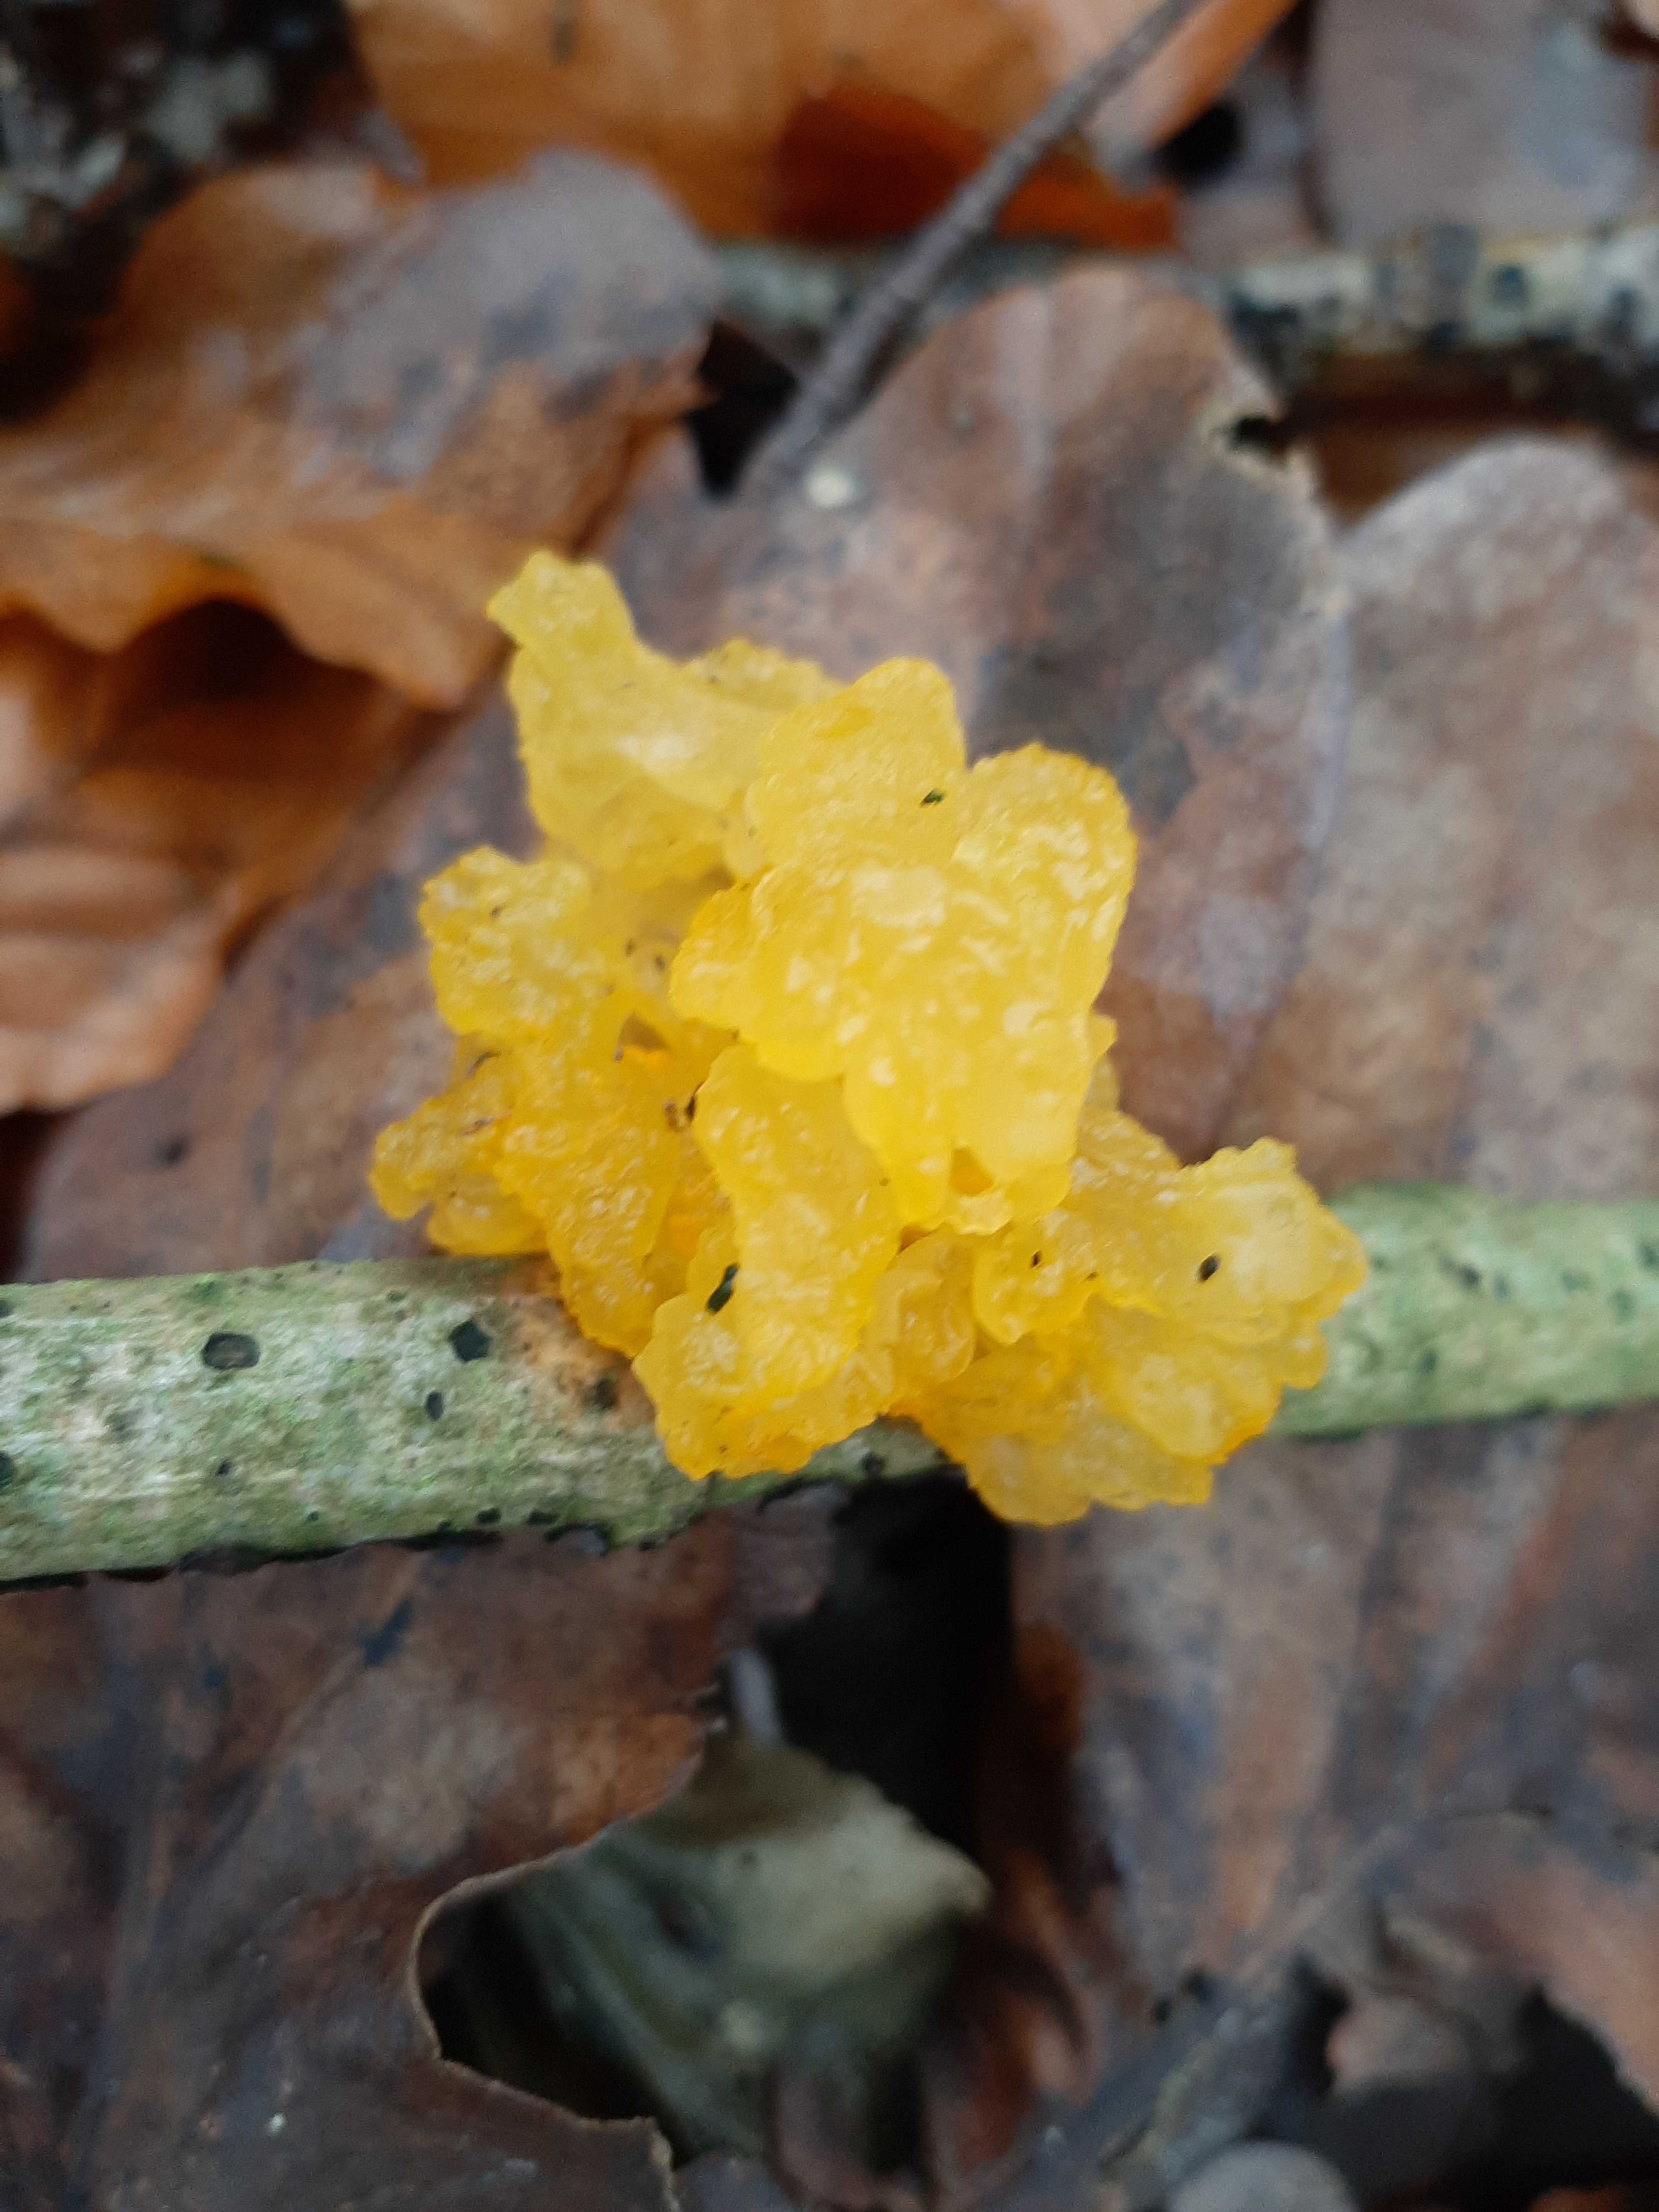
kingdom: Fungi
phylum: Basidiomycota
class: Tremellomycetes
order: Tremellales
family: Tremellaceae
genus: Tremella
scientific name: Tremella mesenterica
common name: gul bævresvamp
